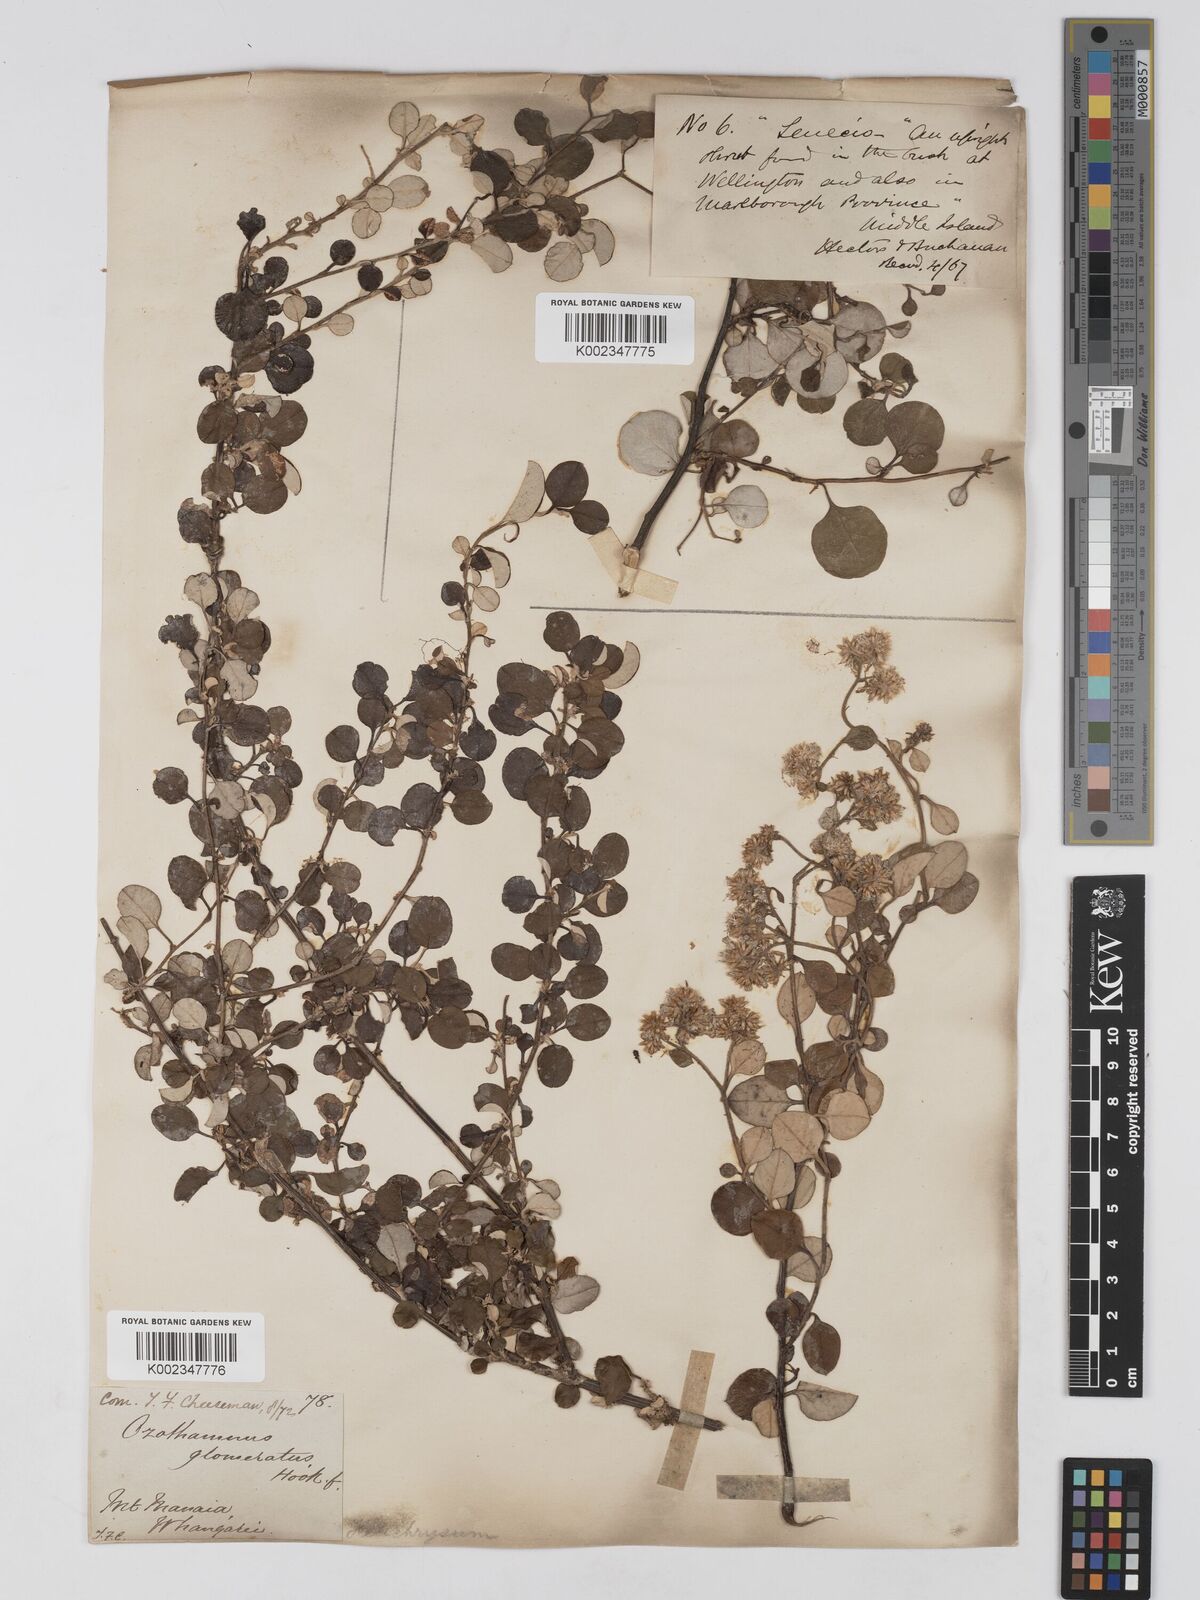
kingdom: Plantae
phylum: Tracheophyta
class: Magnoliopsida
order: Asterales
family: Asteraceae
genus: Ozothamnus
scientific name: Ozothamnus glomeratus
